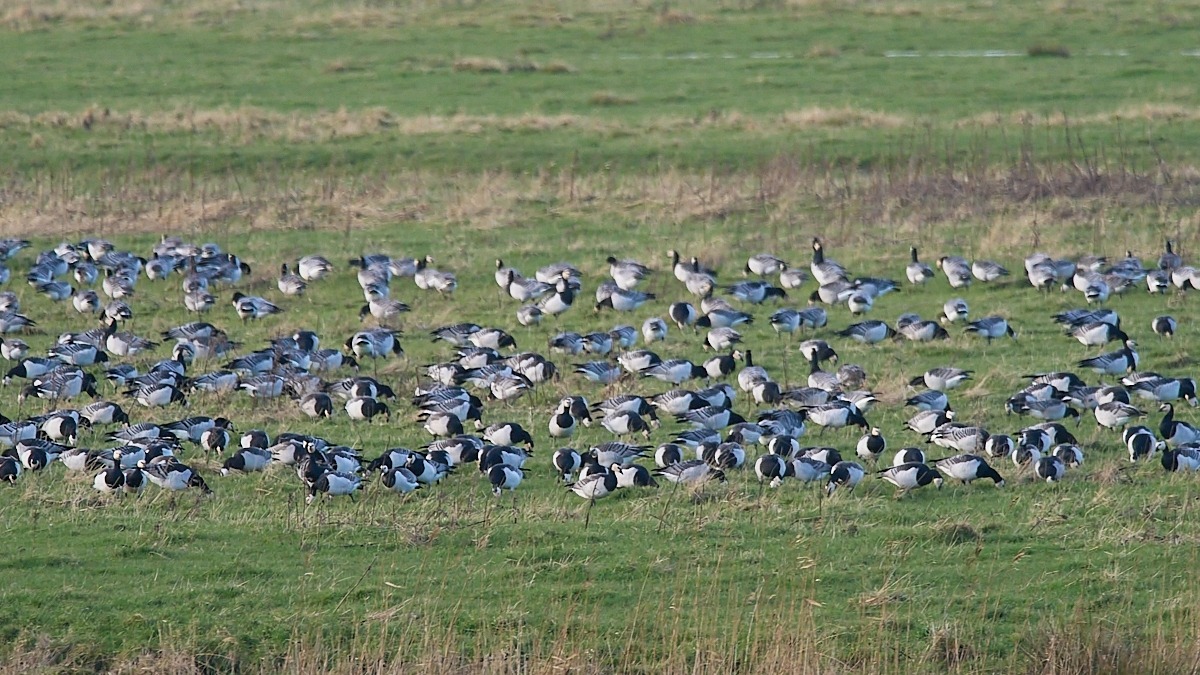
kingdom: Animalia
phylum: Chordata
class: Aves
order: Anseriformes
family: Anatidae
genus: Branta
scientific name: Branta leucopsis
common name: Bramgås
